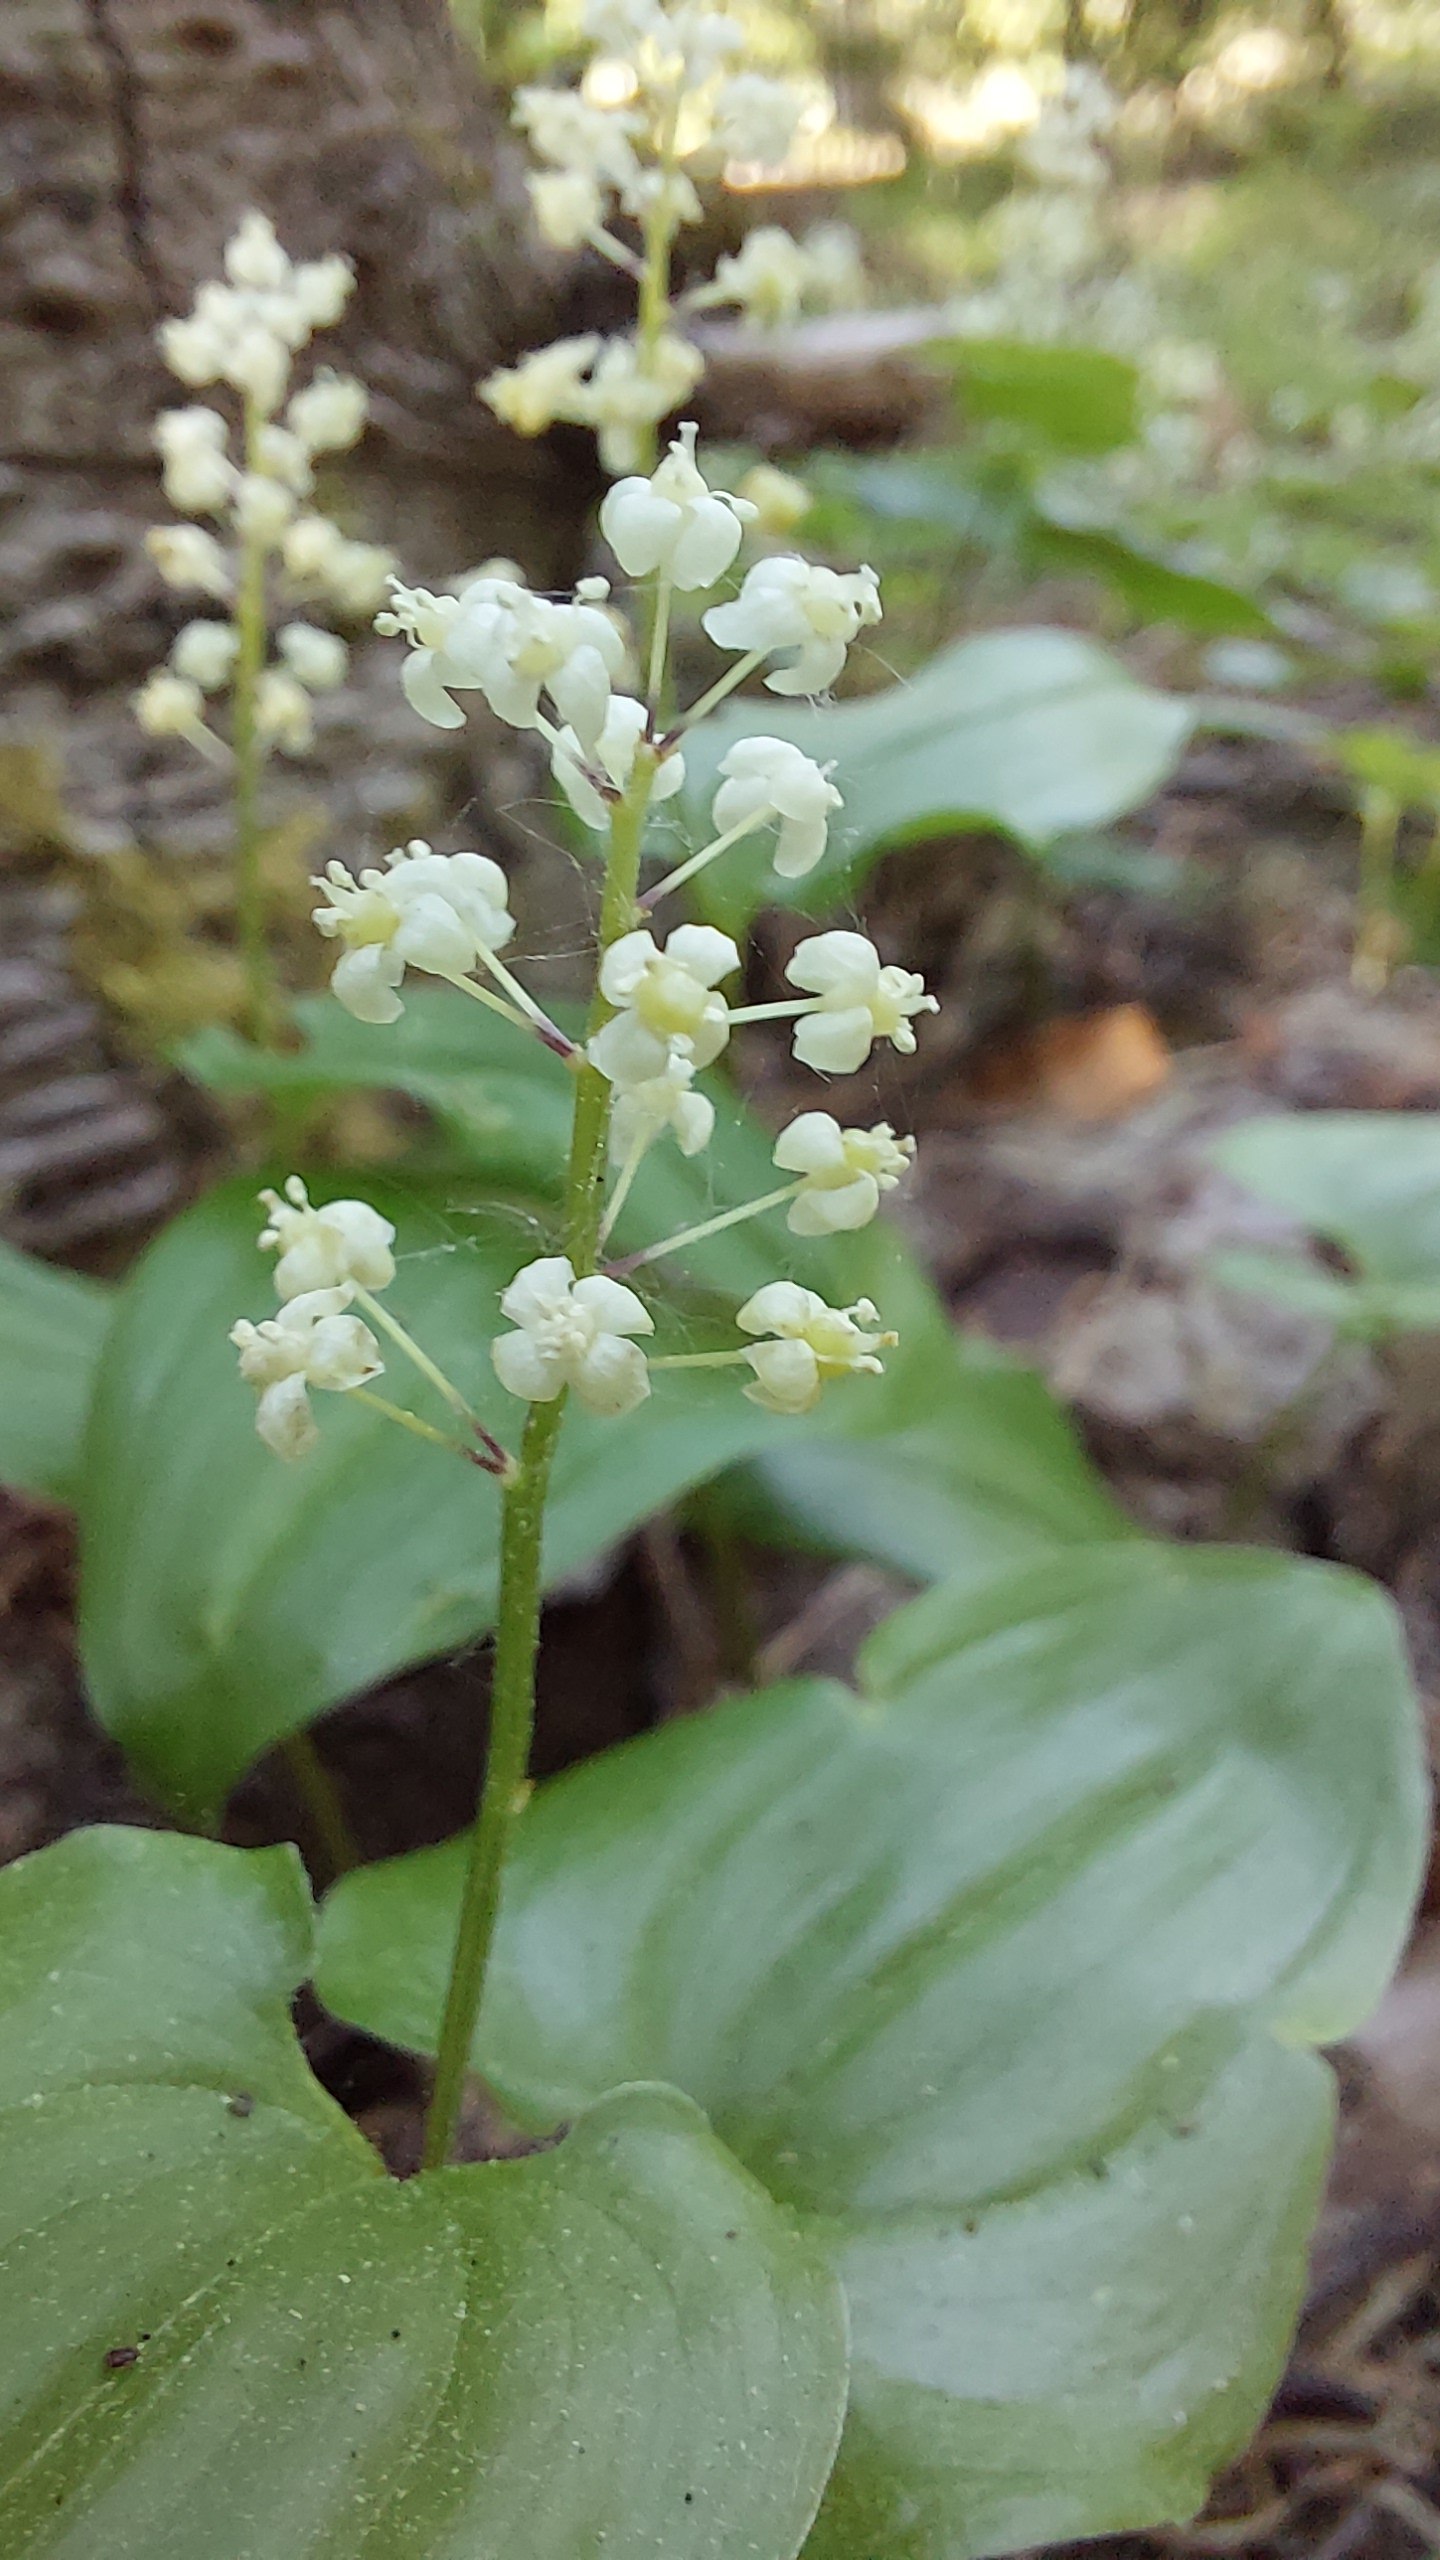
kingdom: Plantae
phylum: Tracheophyta
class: Liliopsida
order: Asparagales
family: Asparagaceae
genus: Maianthemum
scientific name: Maianthemum bifolium
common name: Majblomst
